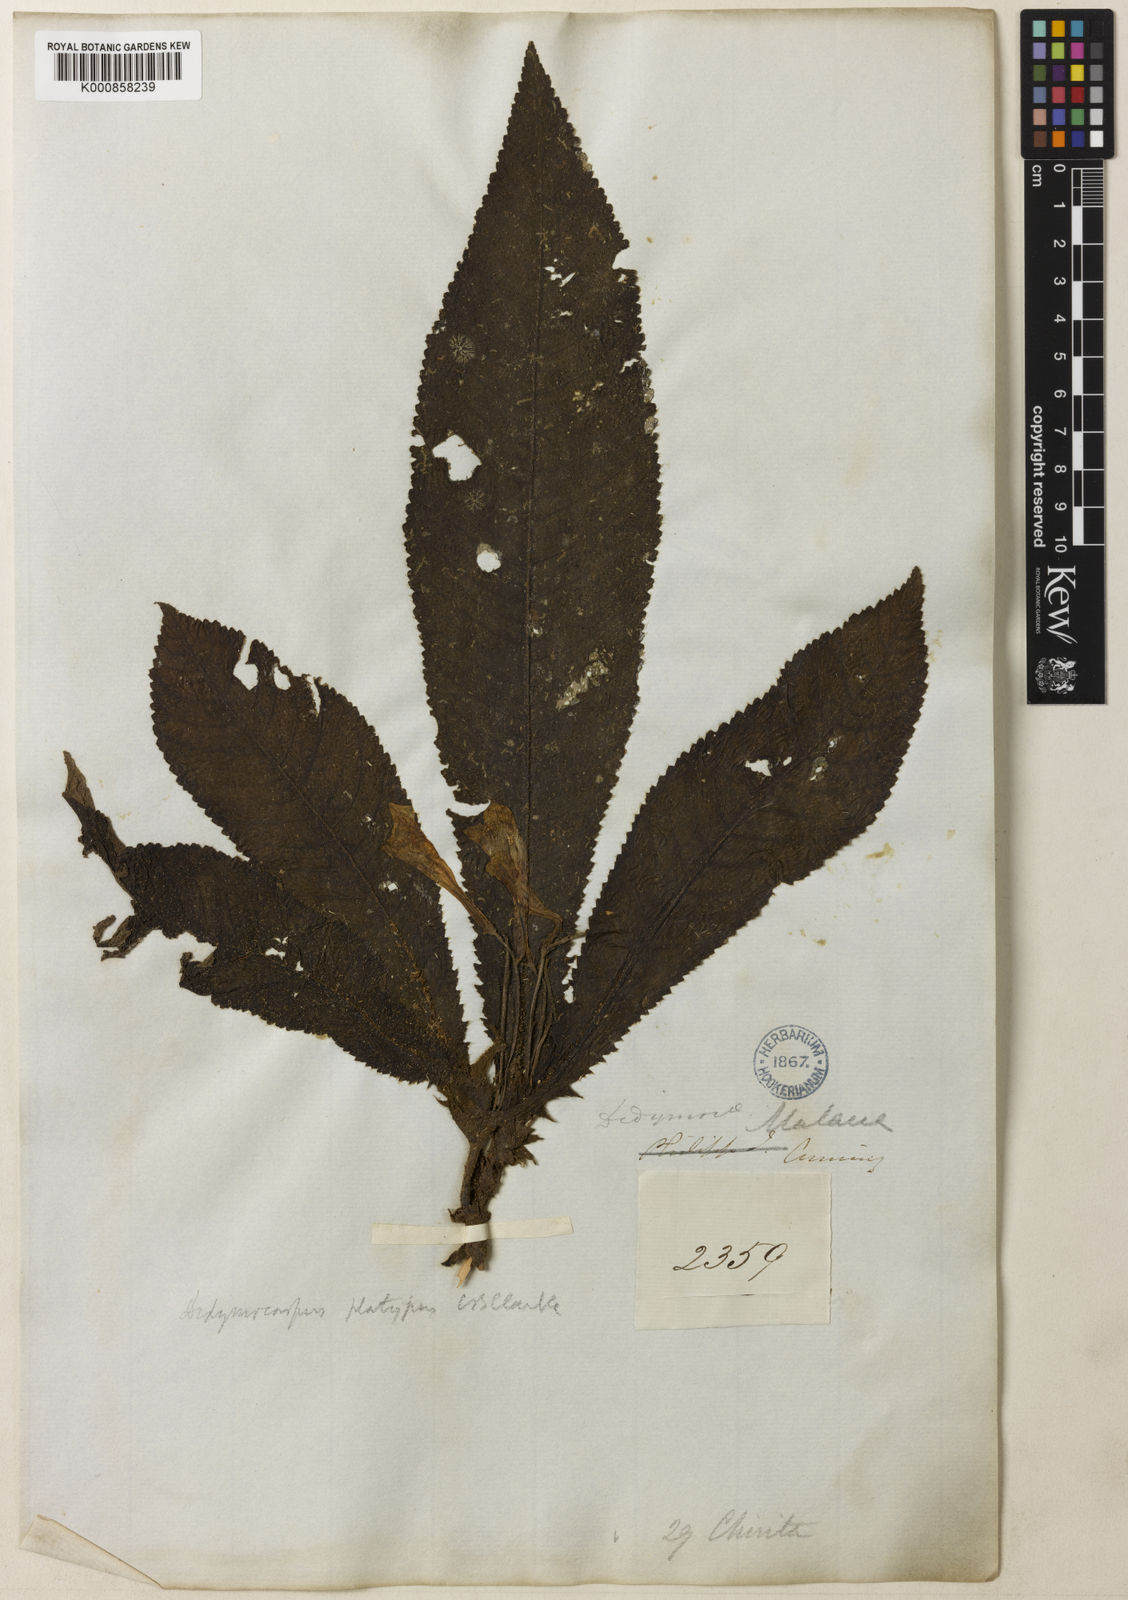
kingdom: Plantae
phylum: Tracheophyta
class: Magnoliopsida
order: Lamiales
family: Gesneriaceae
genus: Codonoboea
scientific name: Codonoboea platypus
